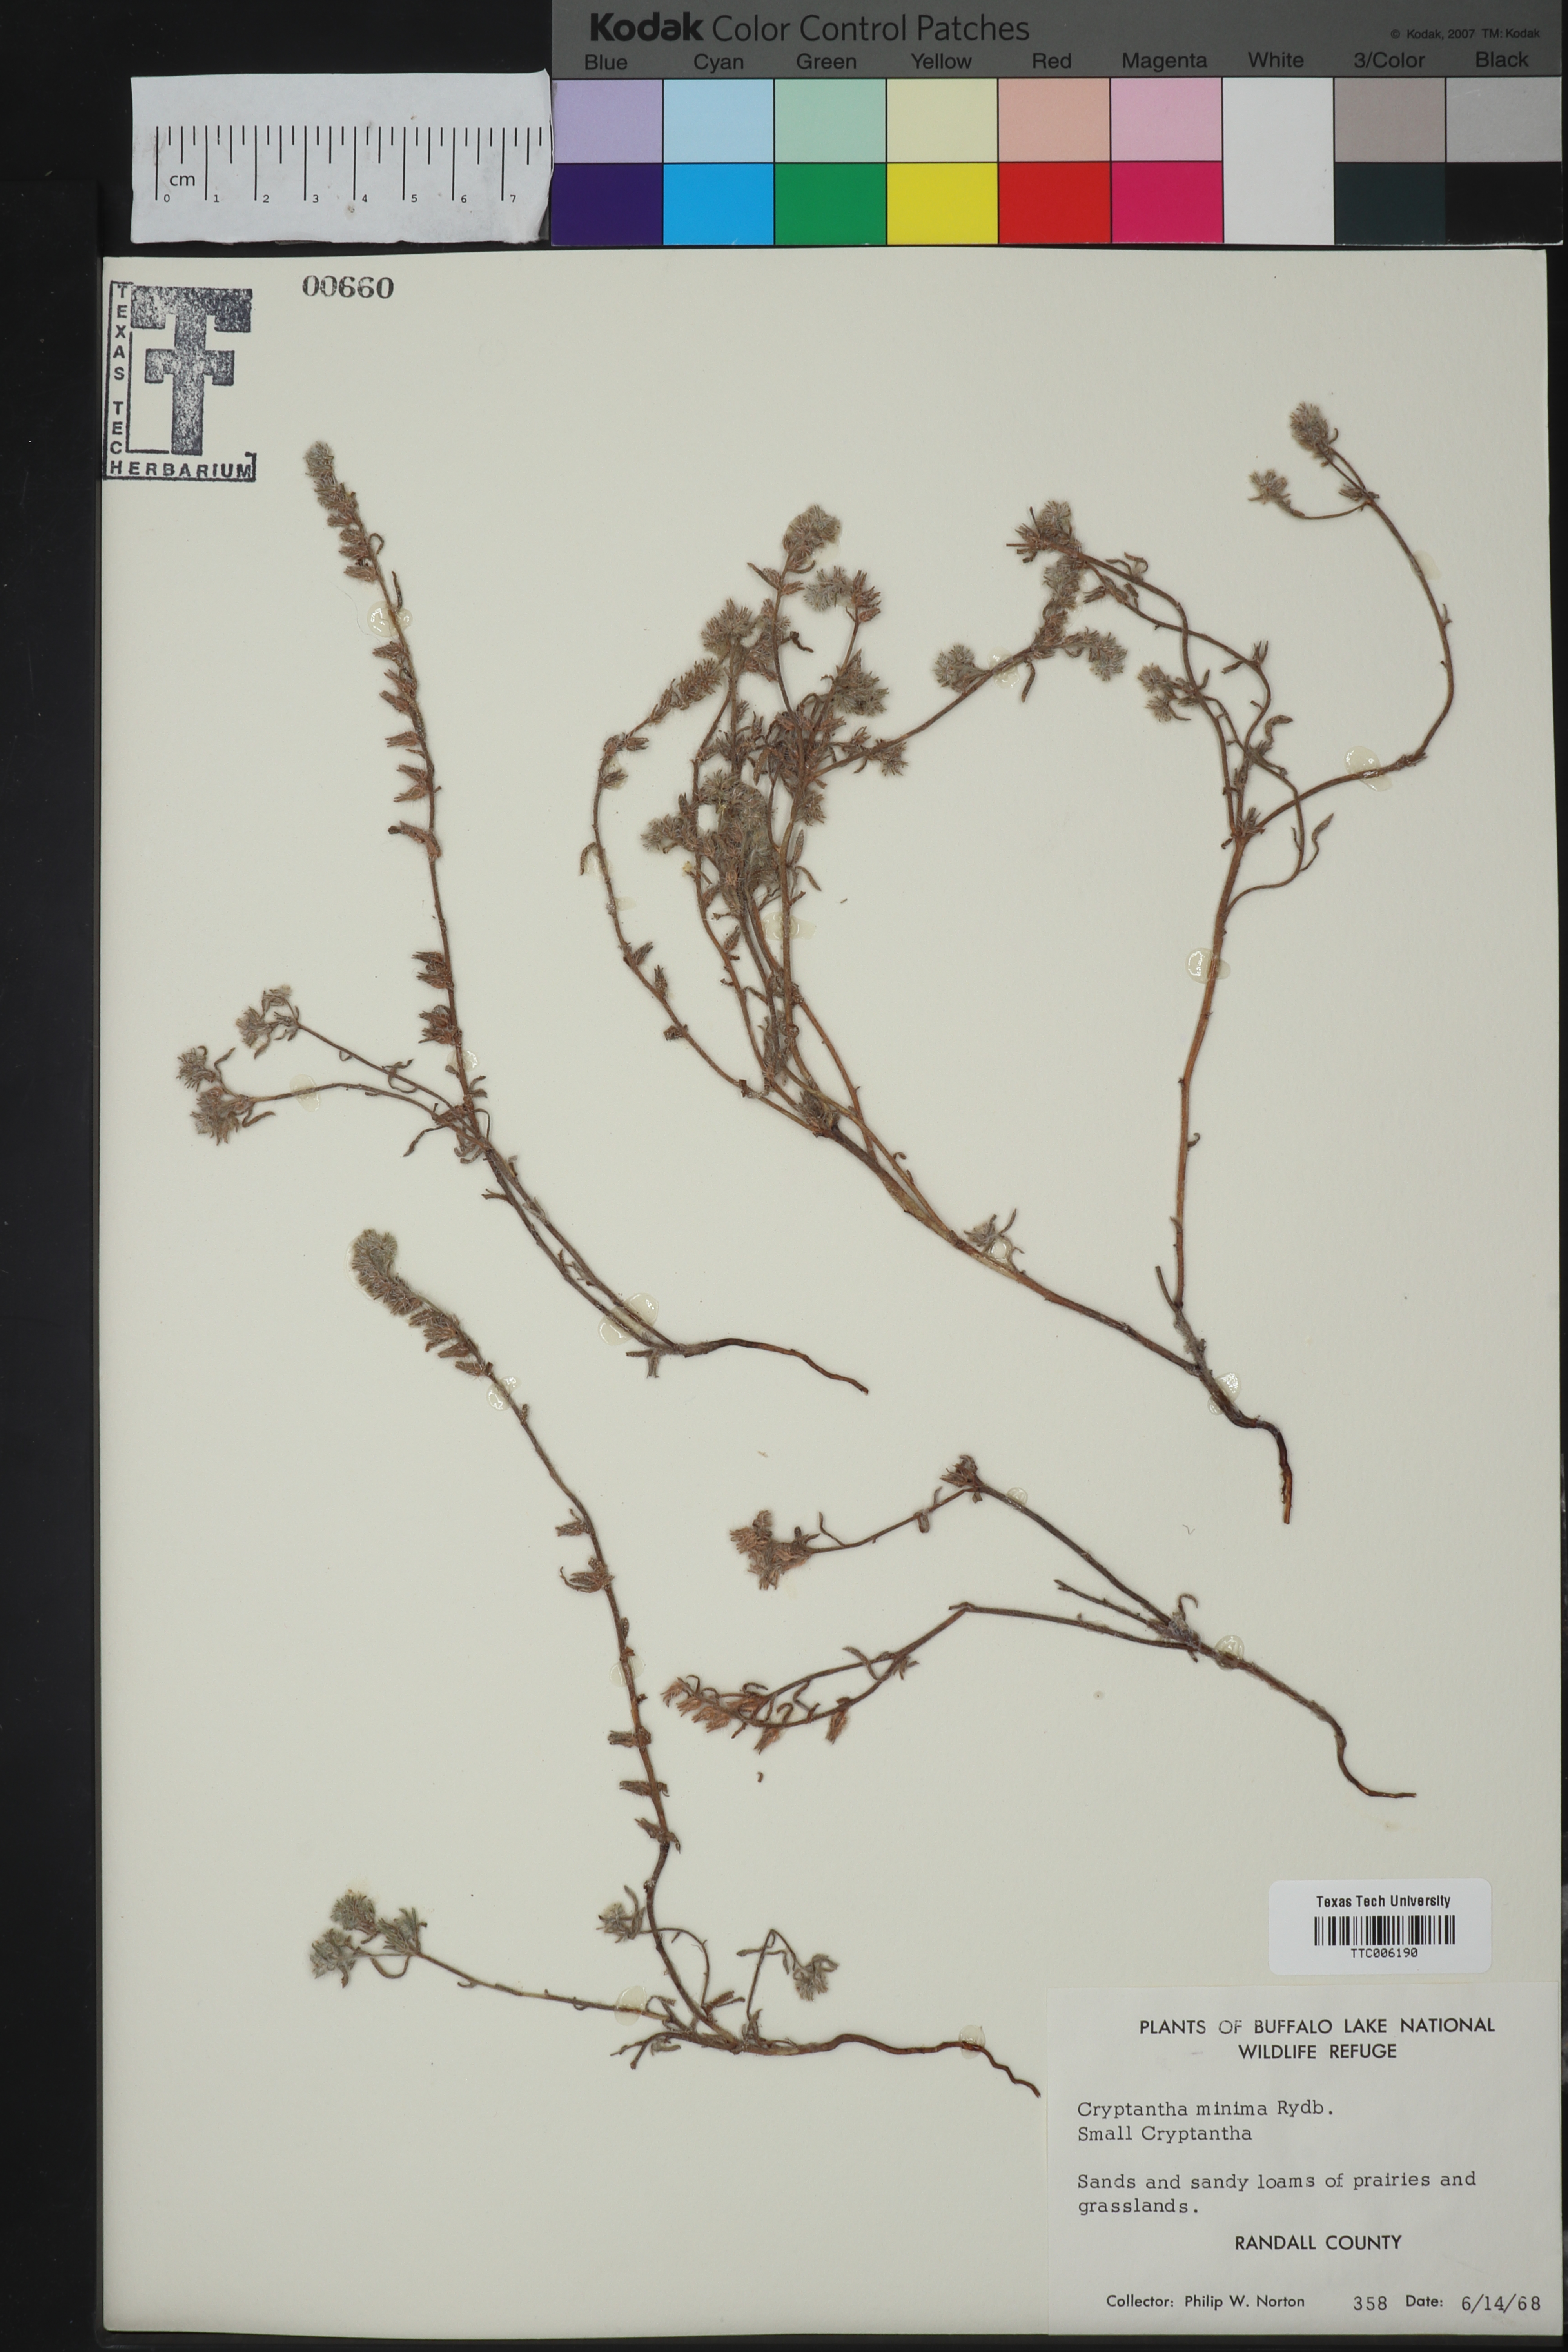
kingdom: Plantae
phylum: Tracheophyta
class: Magnoliopsida
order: Boraginales
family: Boraginaceae
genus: Cryptantha
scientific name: Cryptantha minima
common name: Little cat's-eye
